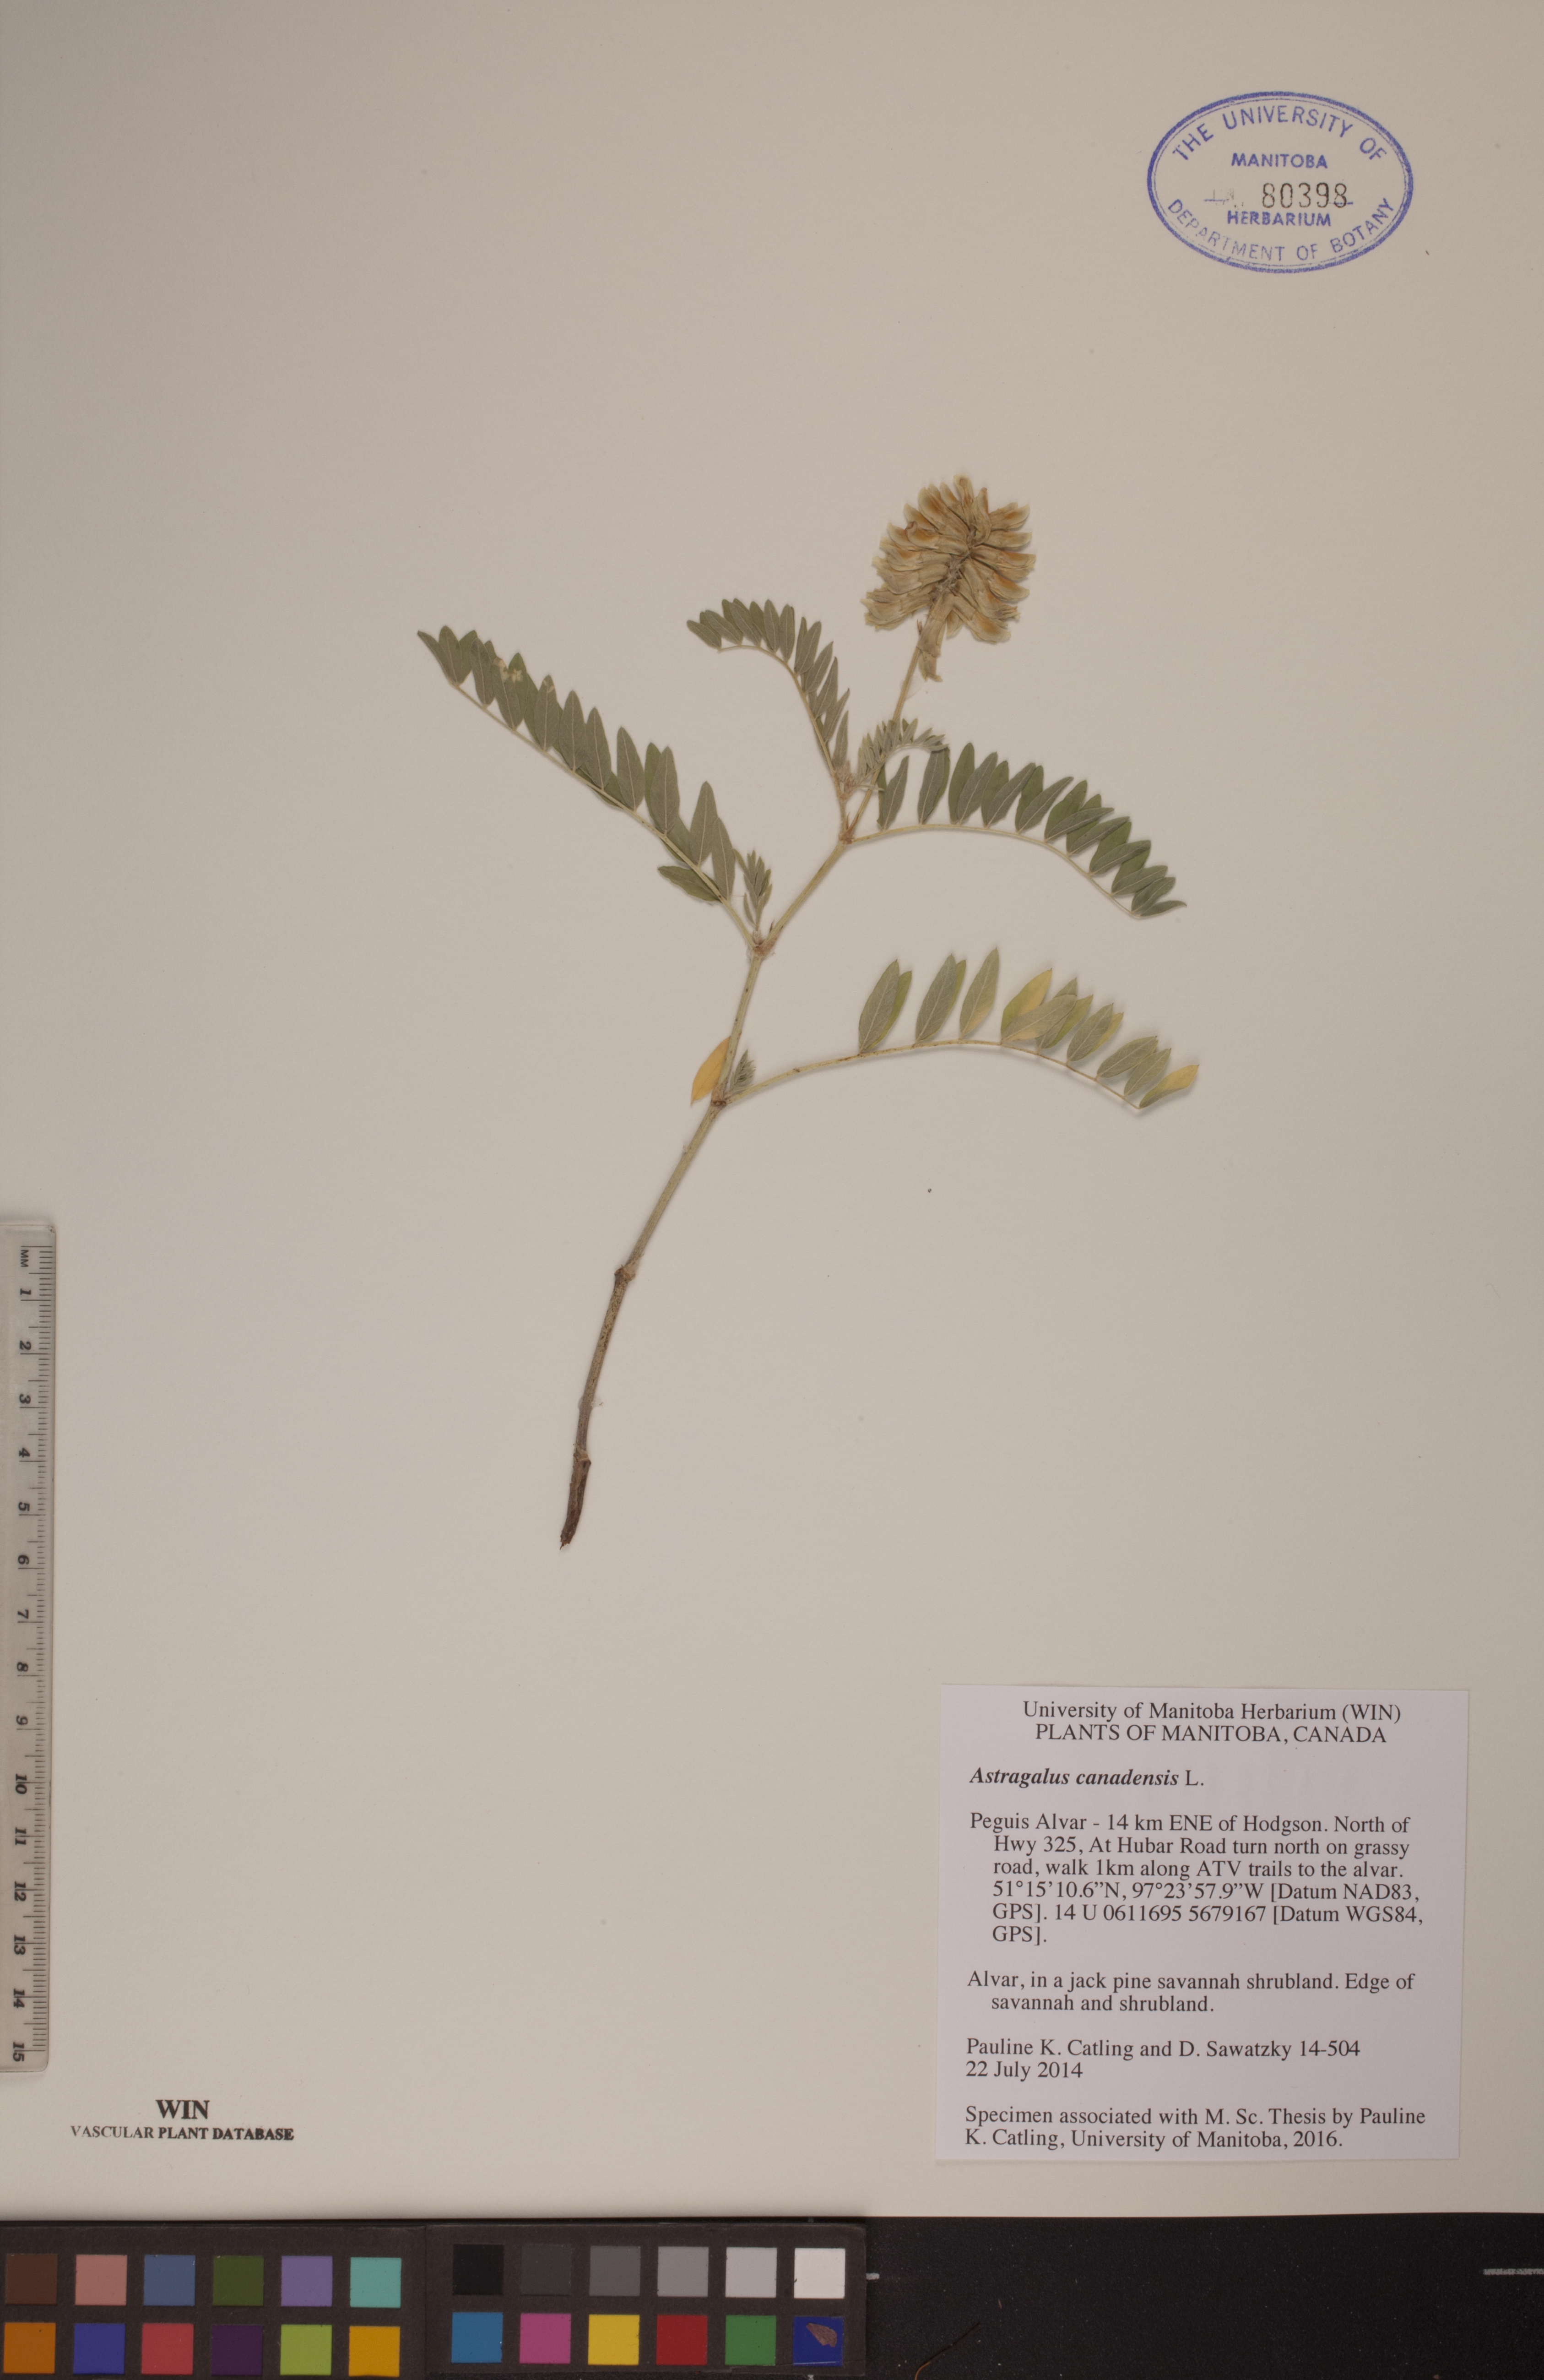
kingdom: Plantae
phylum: Tracheophyta
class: Magnoliopsida
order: Fabales
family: Fabaceae
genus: Astragalus
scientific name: Astragalus canadensis
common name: Canada milk-vetch
